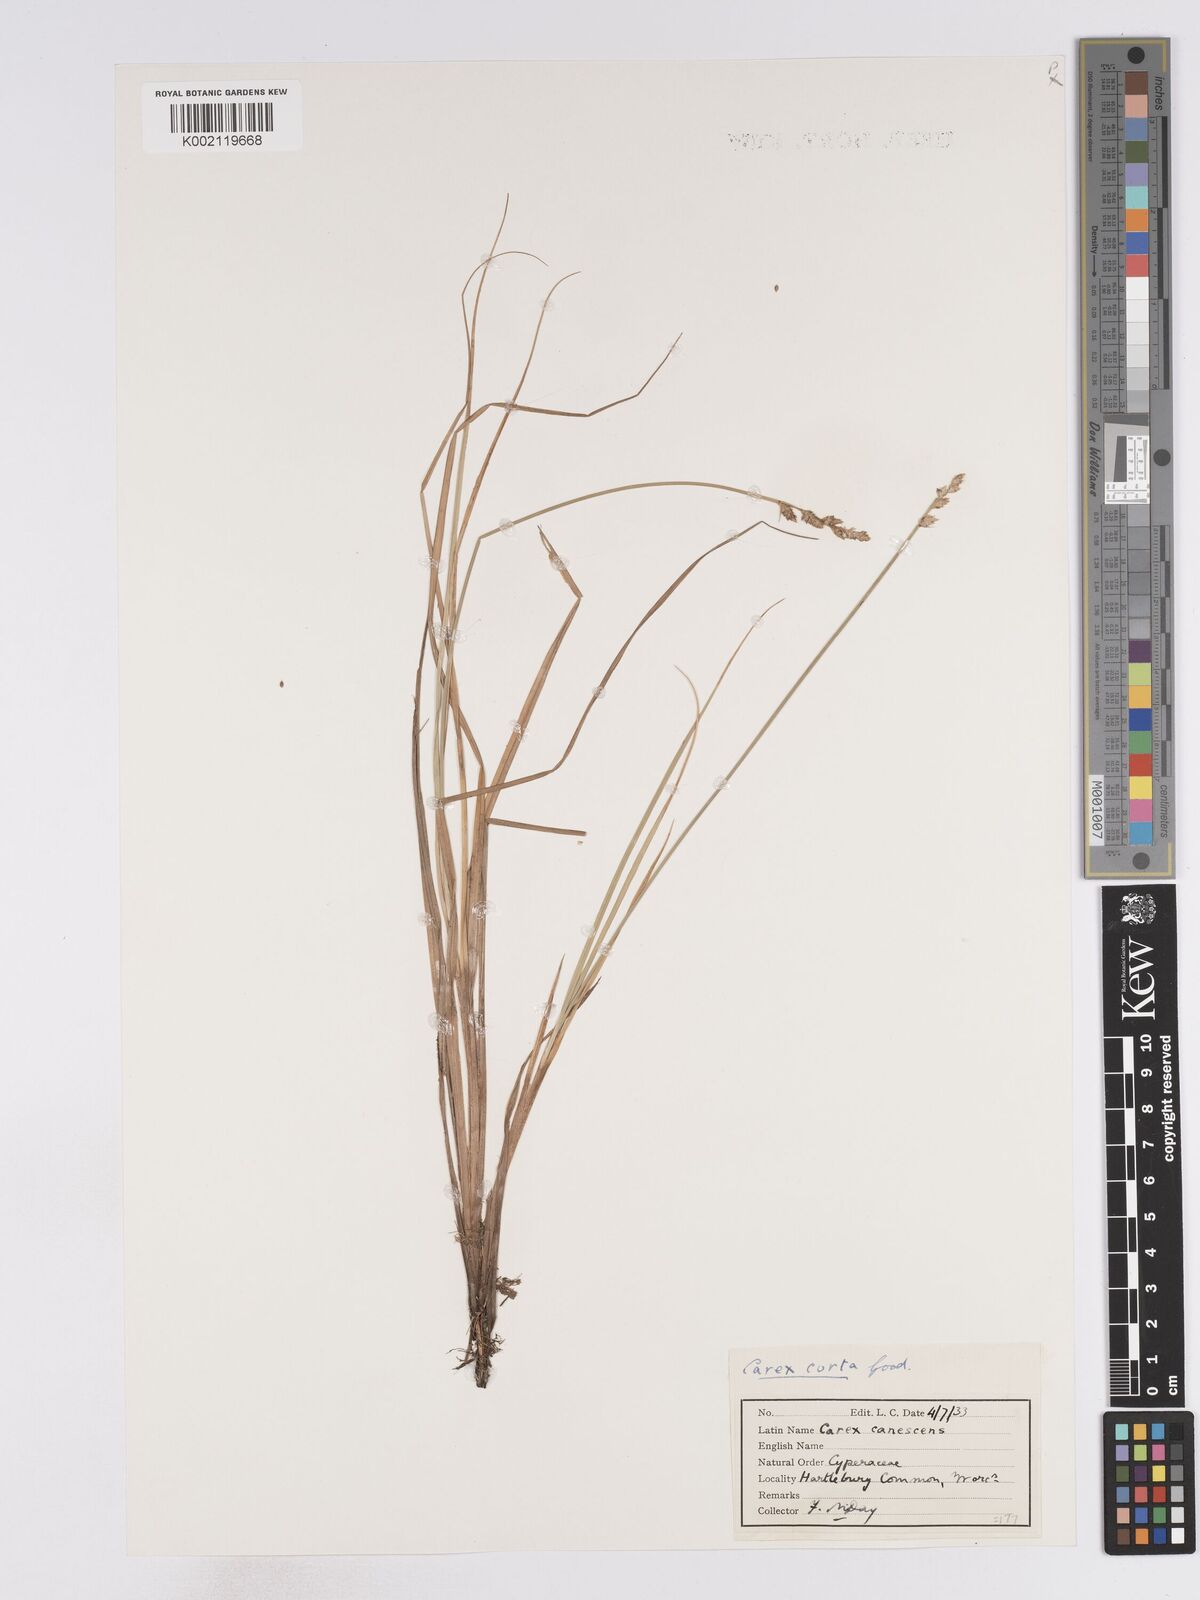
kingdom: Plantae
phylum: Tracheophyta
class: Liliopsida
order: Poales
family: Cyperaceae
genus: Carex
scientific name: Carex curta
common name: White sedge
